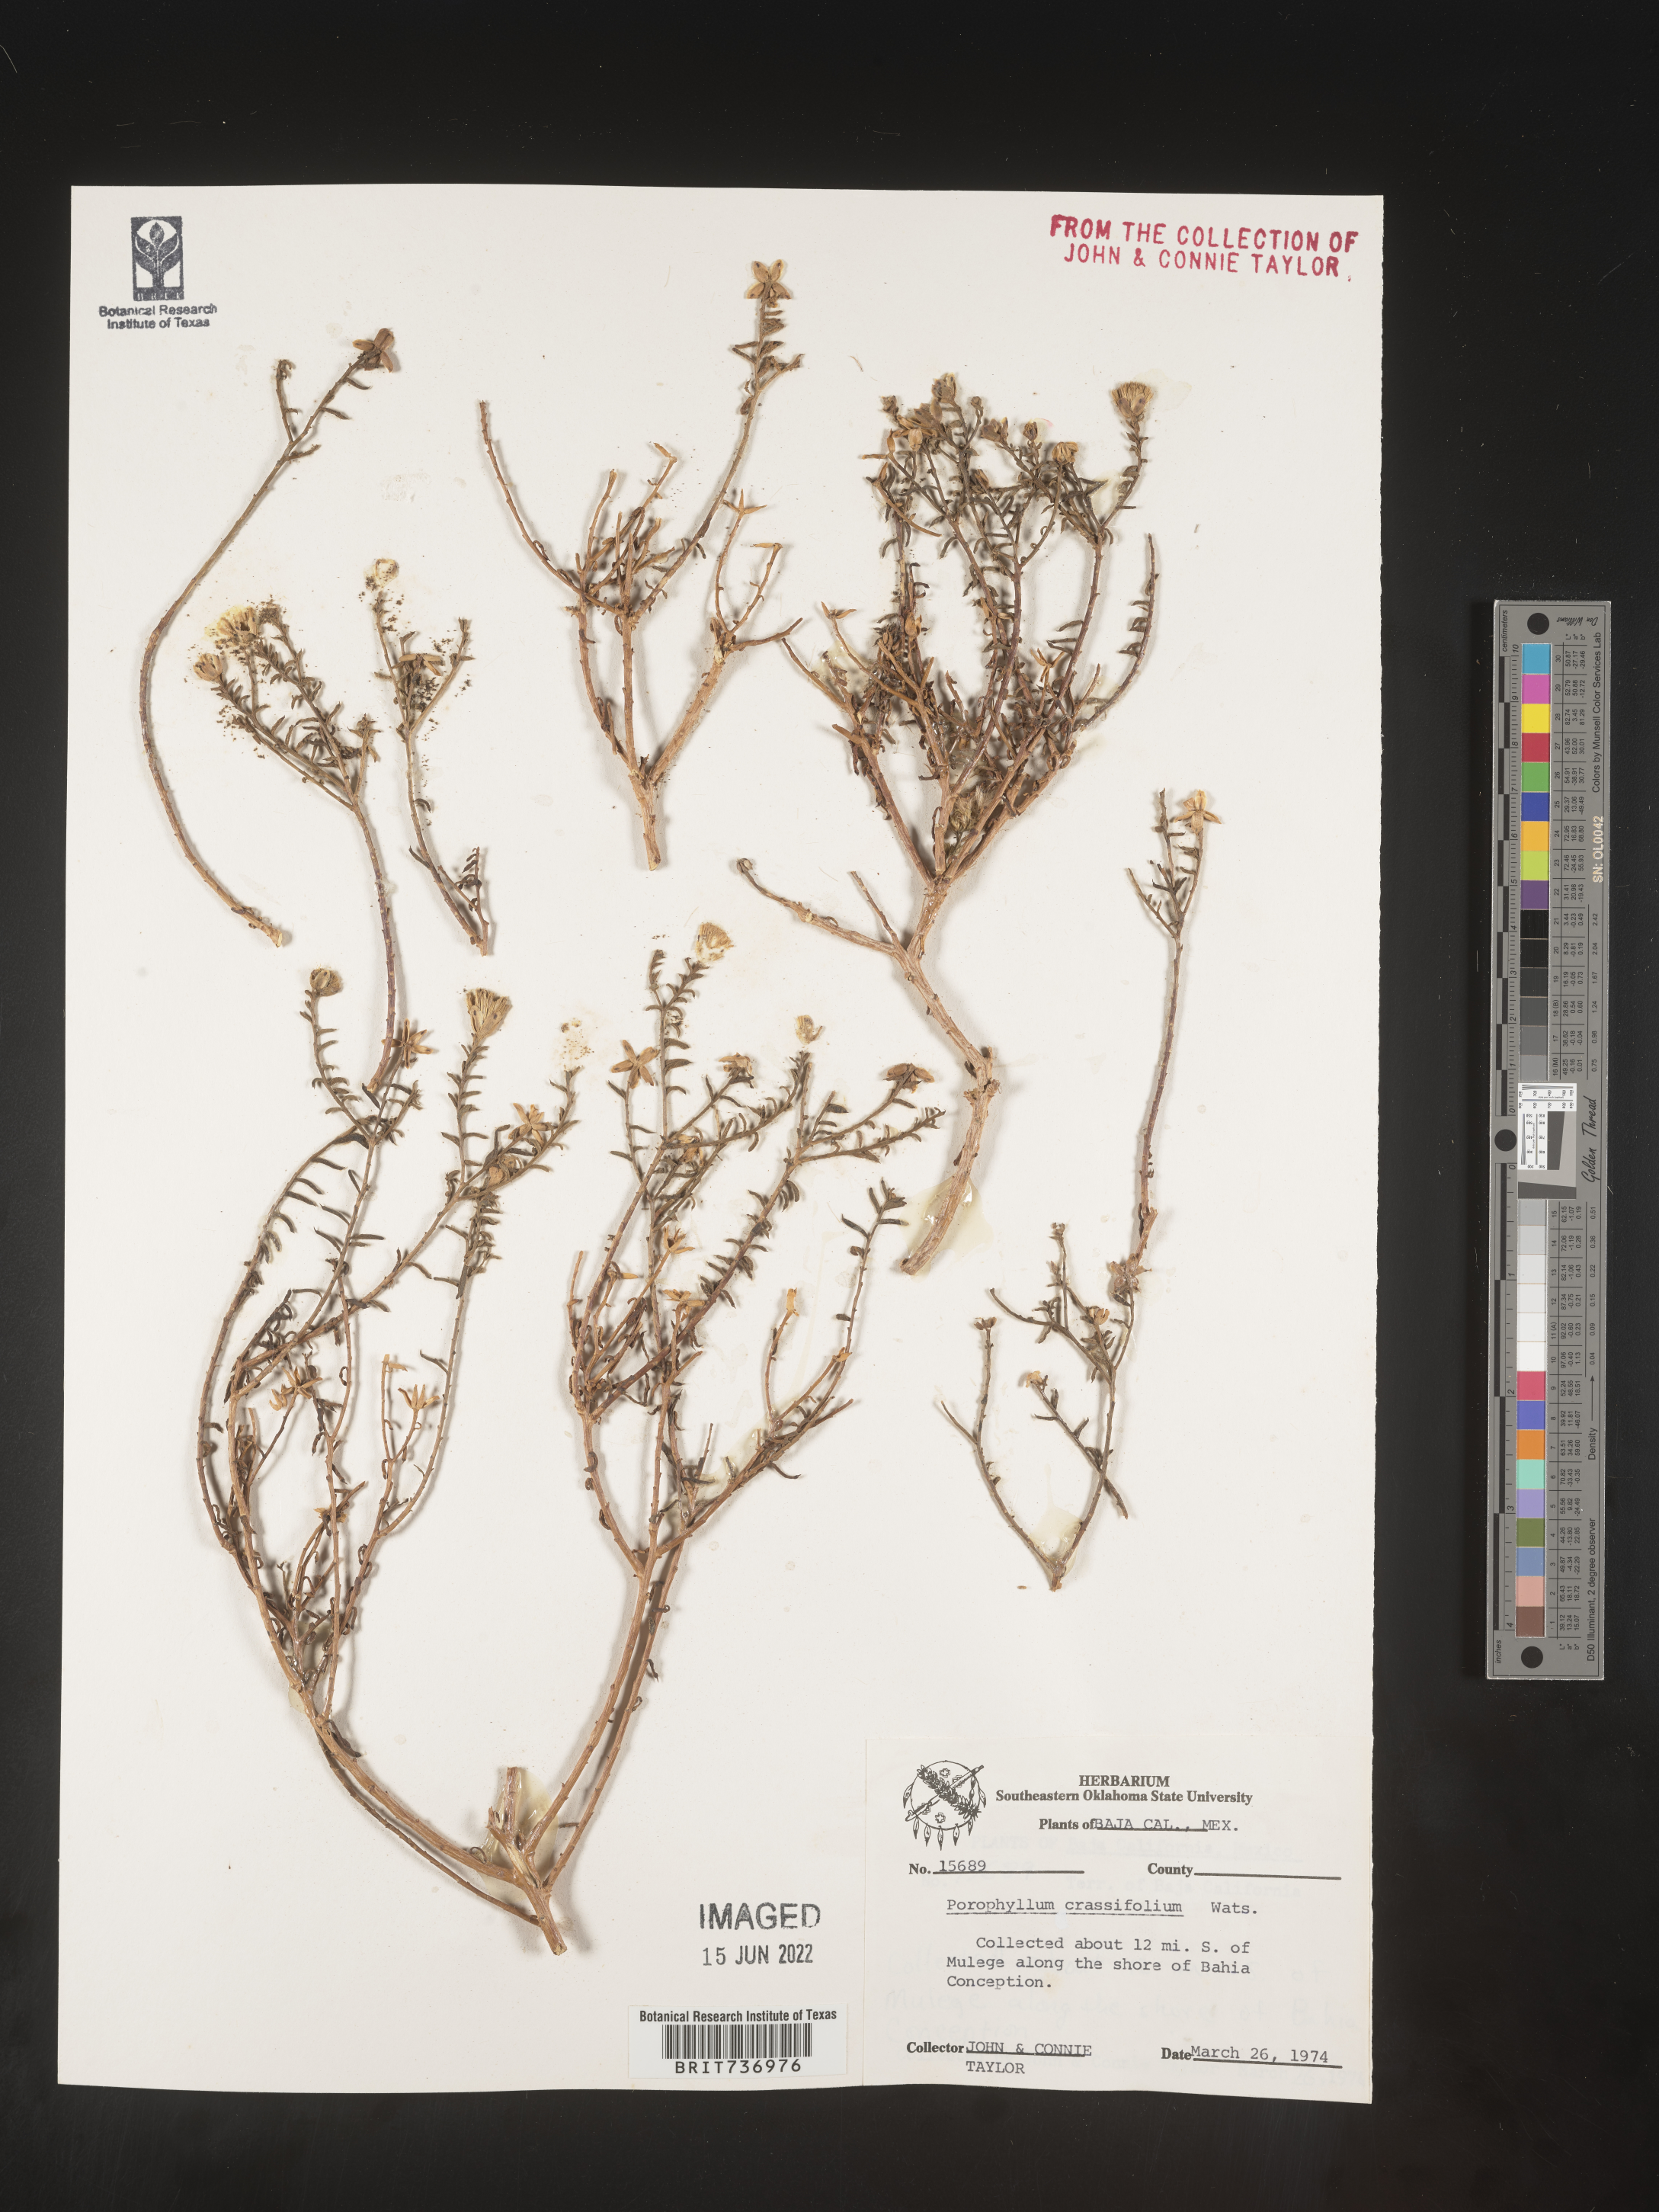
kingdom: Plantae
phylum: Tracheophyta
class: Magnoliopsida
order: Asterales
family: Asteraceae
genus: Porophyllum
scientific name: Porophyllum
